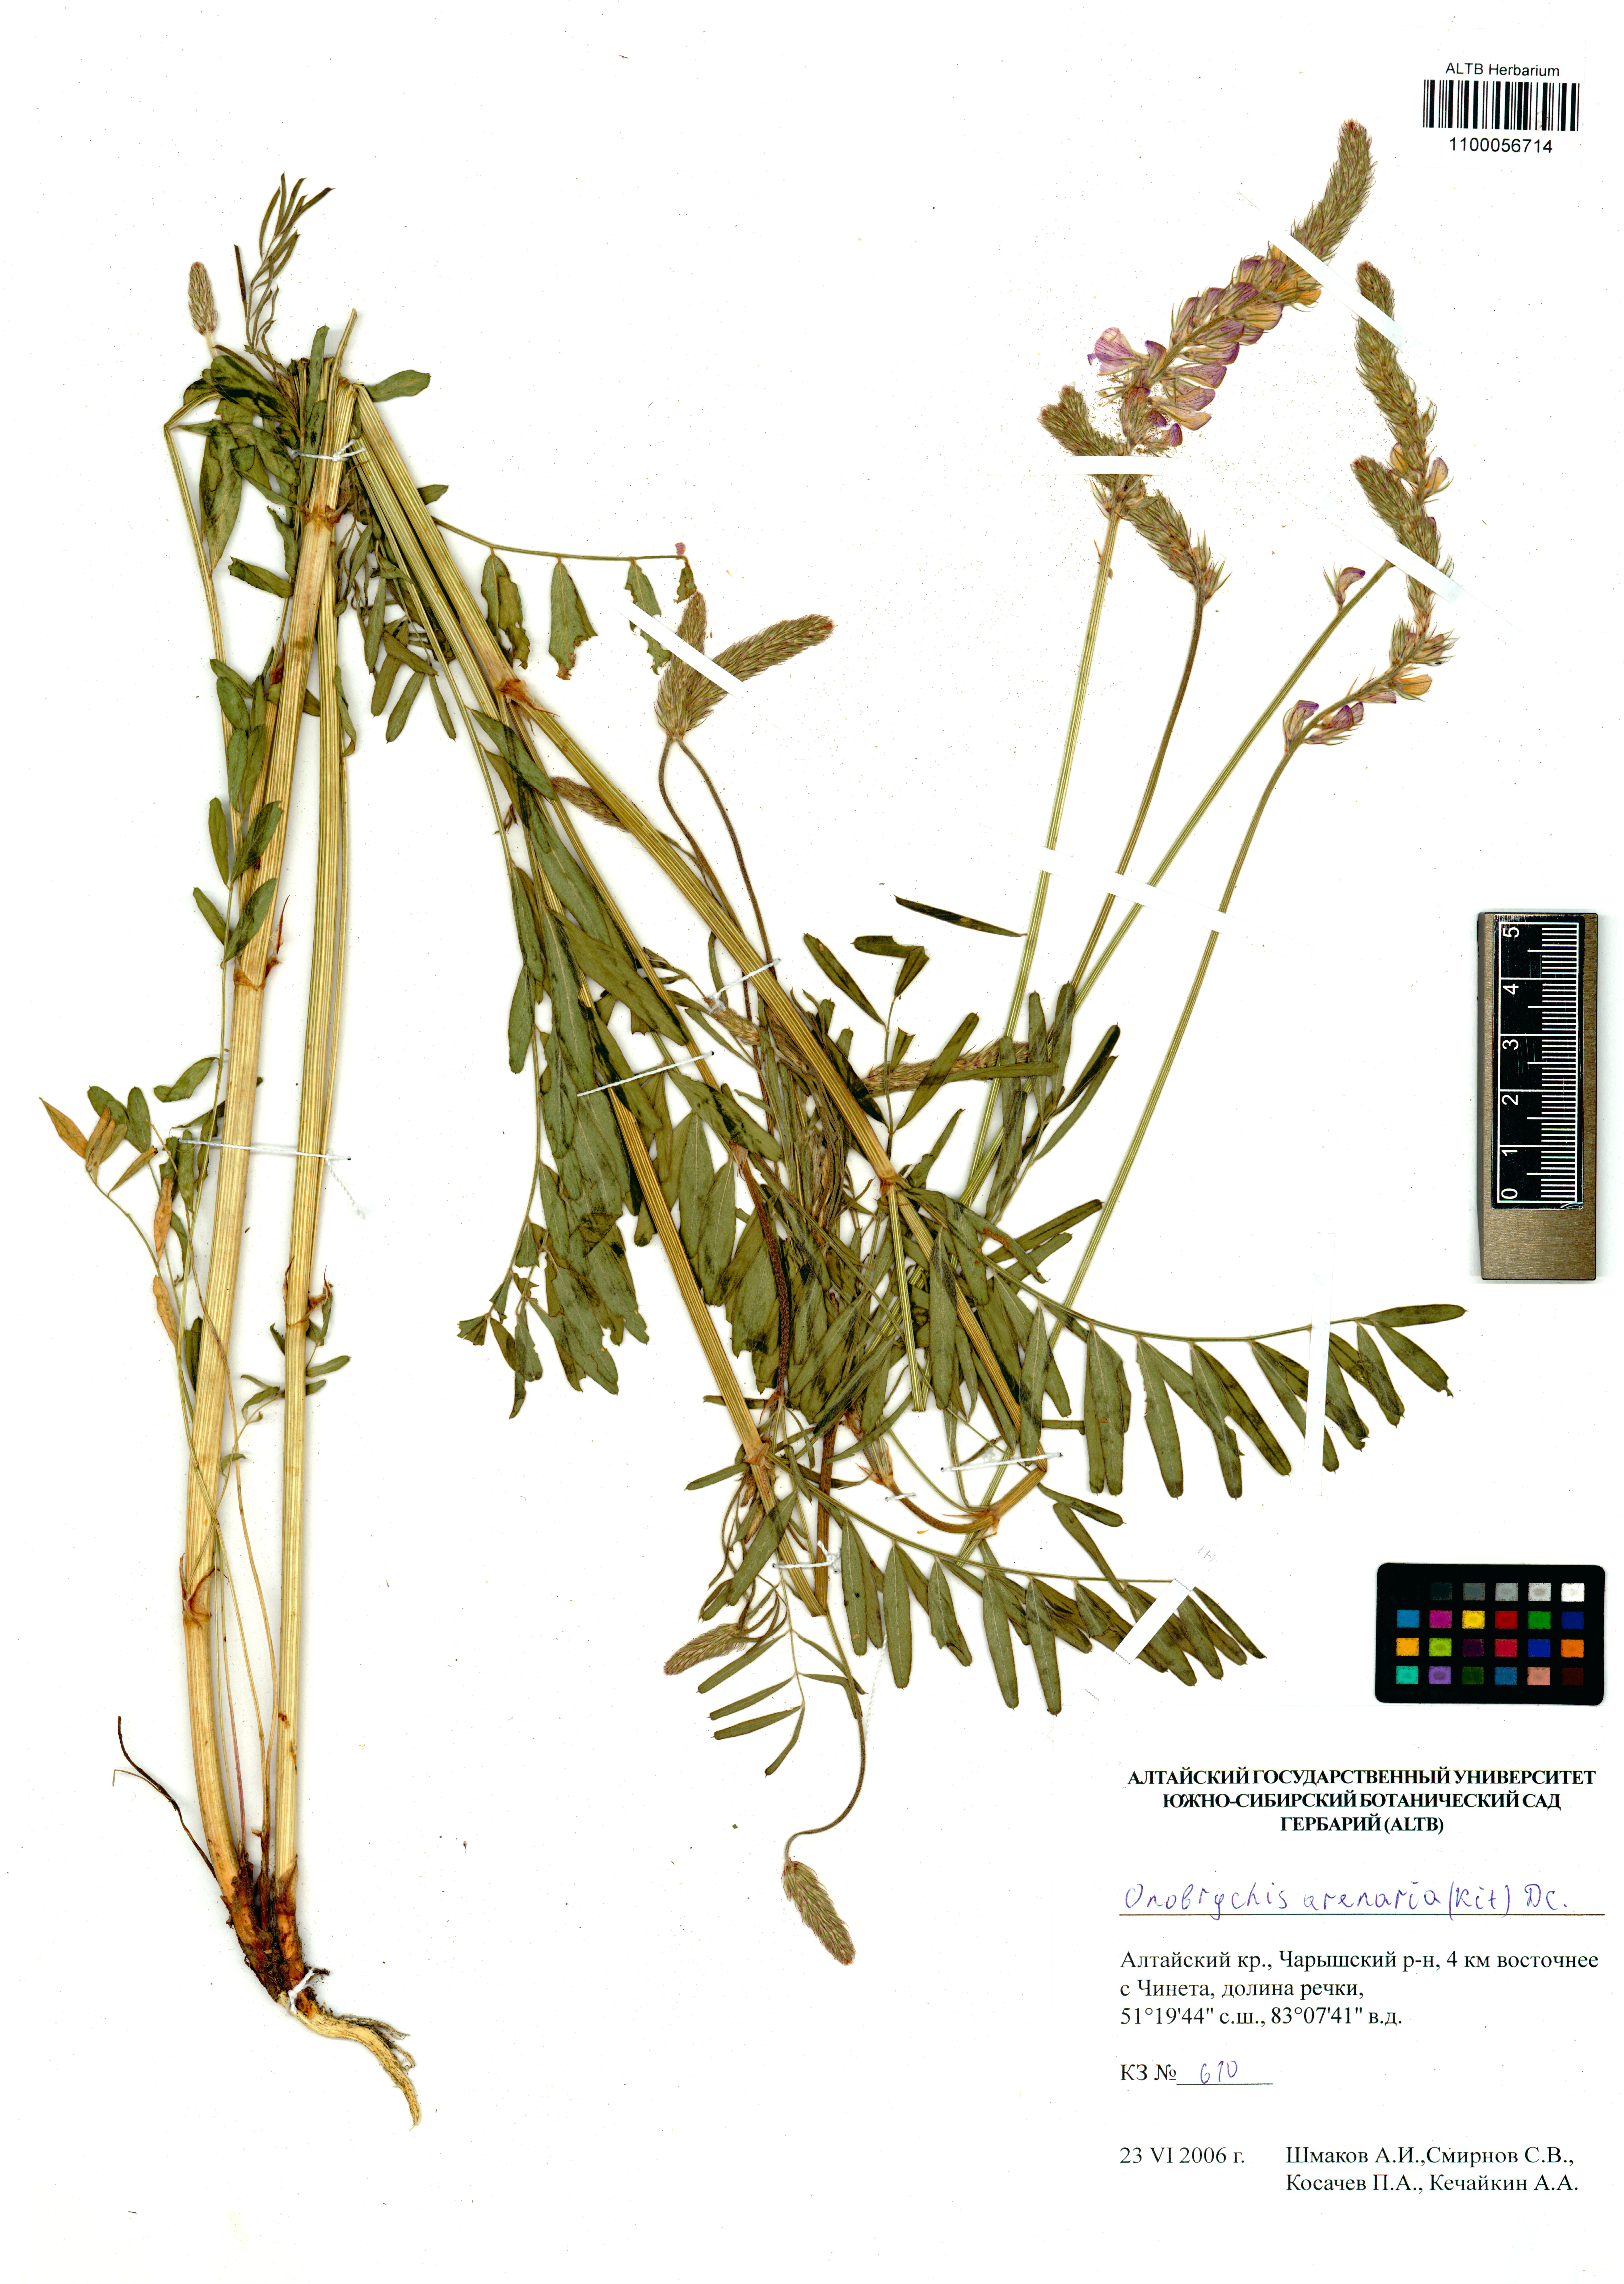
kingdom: Plantae
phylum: Tracheophyta
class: Magnoliopsida
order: Fabales
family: Fabaceae
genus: Onobrychis
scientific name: Onobrychis arenaria
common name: Sand esparcet
